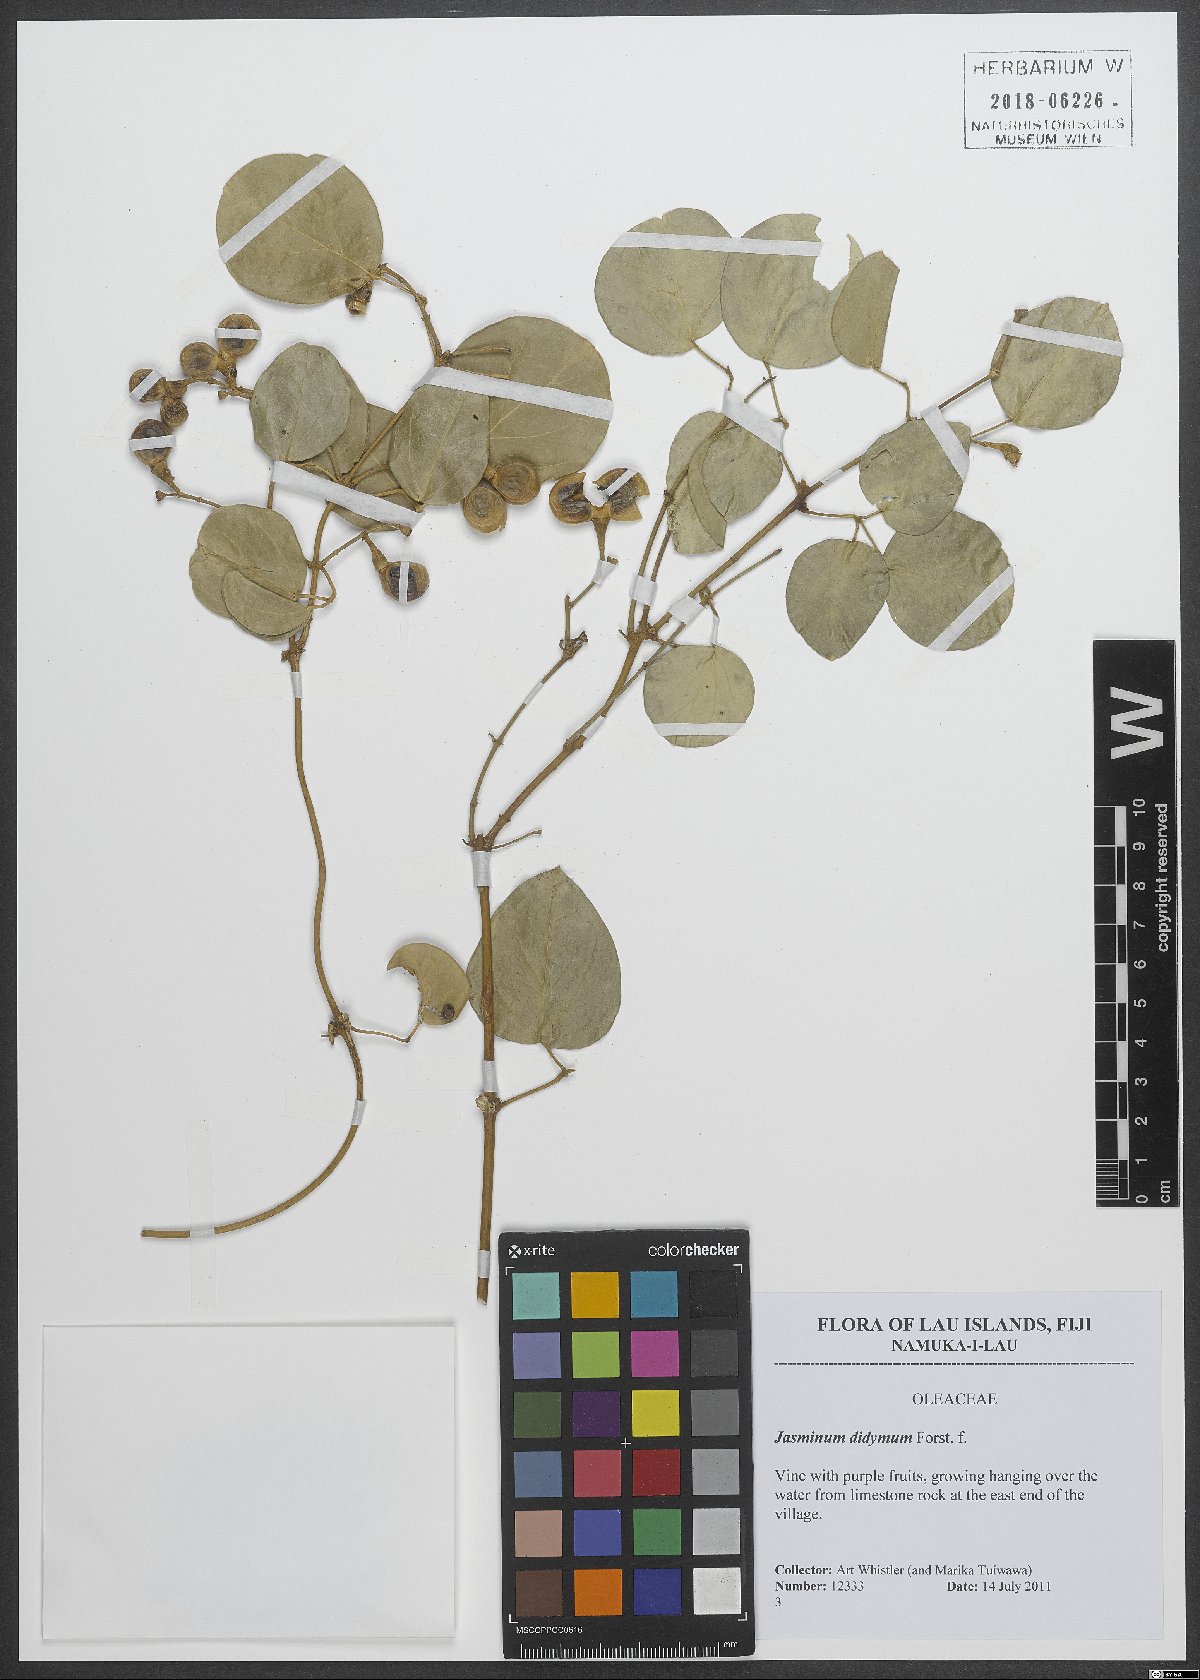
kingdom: Plantae
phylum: Tracheophyta
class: Magnoliopsida
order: Lamiales
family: Oleaceae
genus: Jasminum
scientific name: Jasminum didymum
